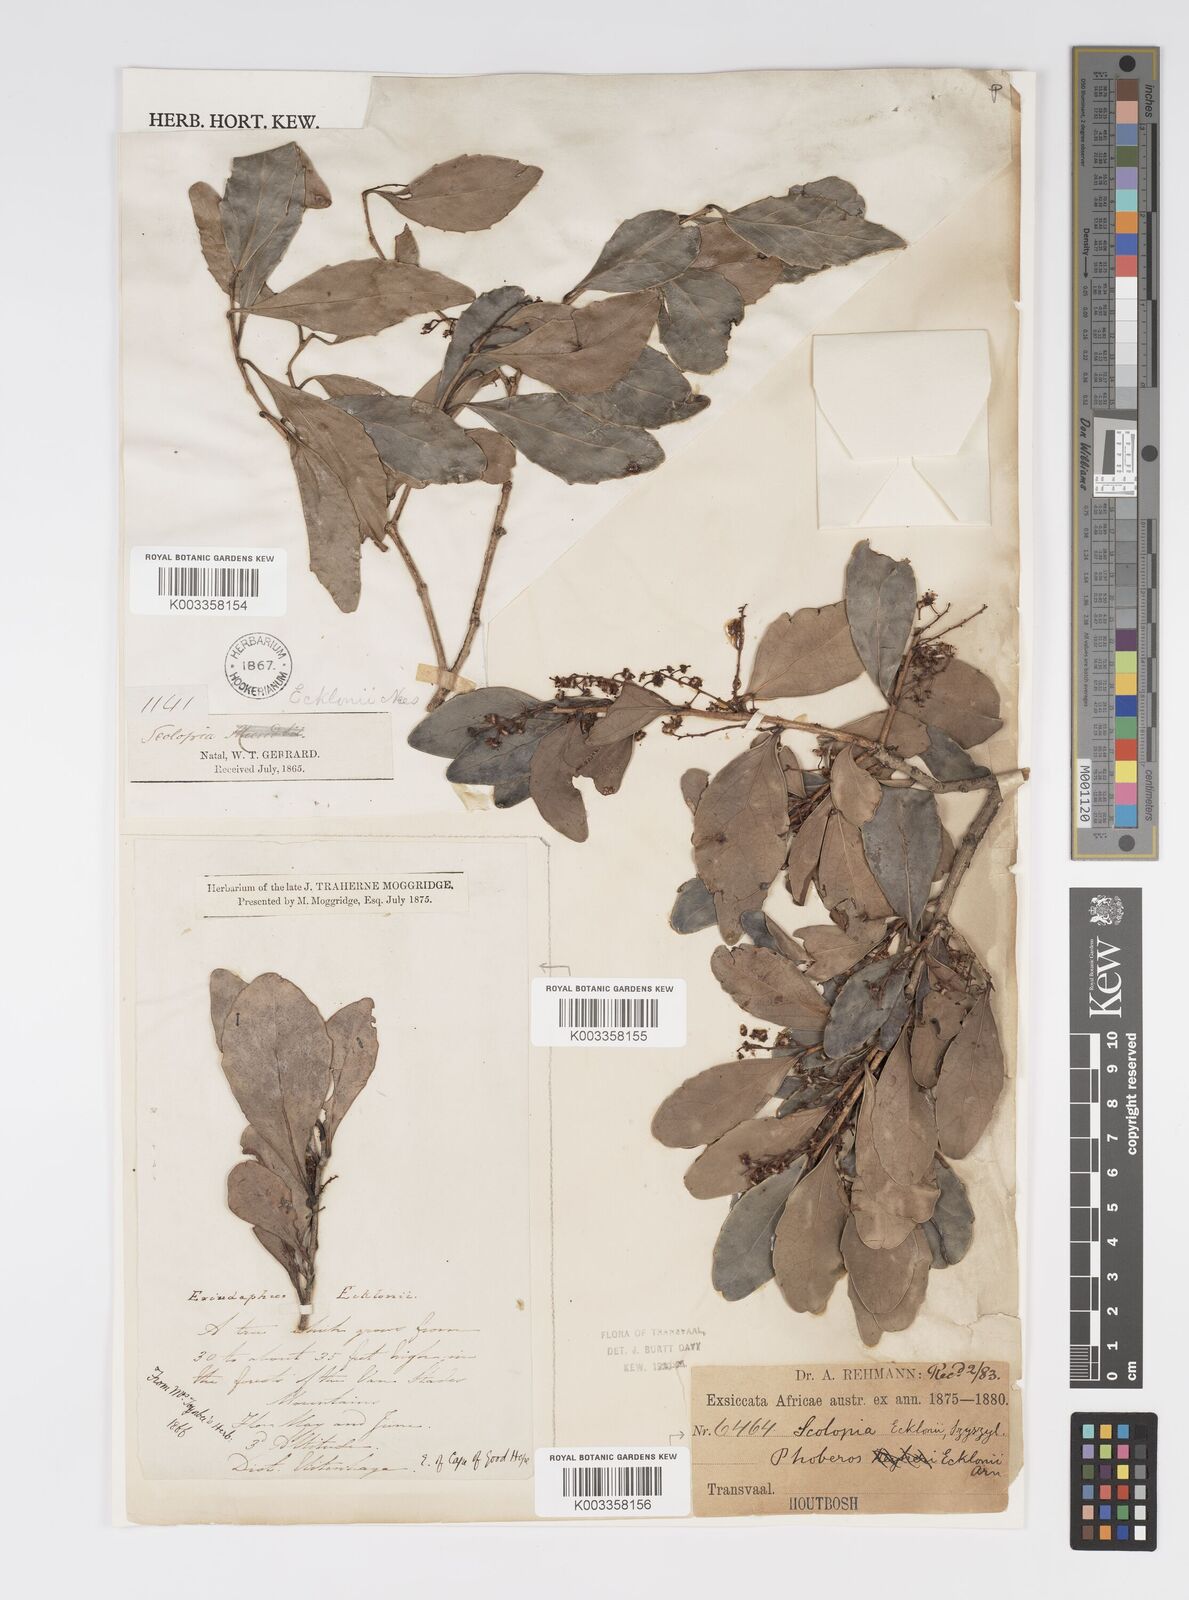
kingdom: Plantae
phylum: Tracheophyta
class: Magnoliopsida
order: Malpighiales
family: Salicaceae
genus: Scolopia
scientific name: Scolopia zeyheri
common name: Thorn pear
